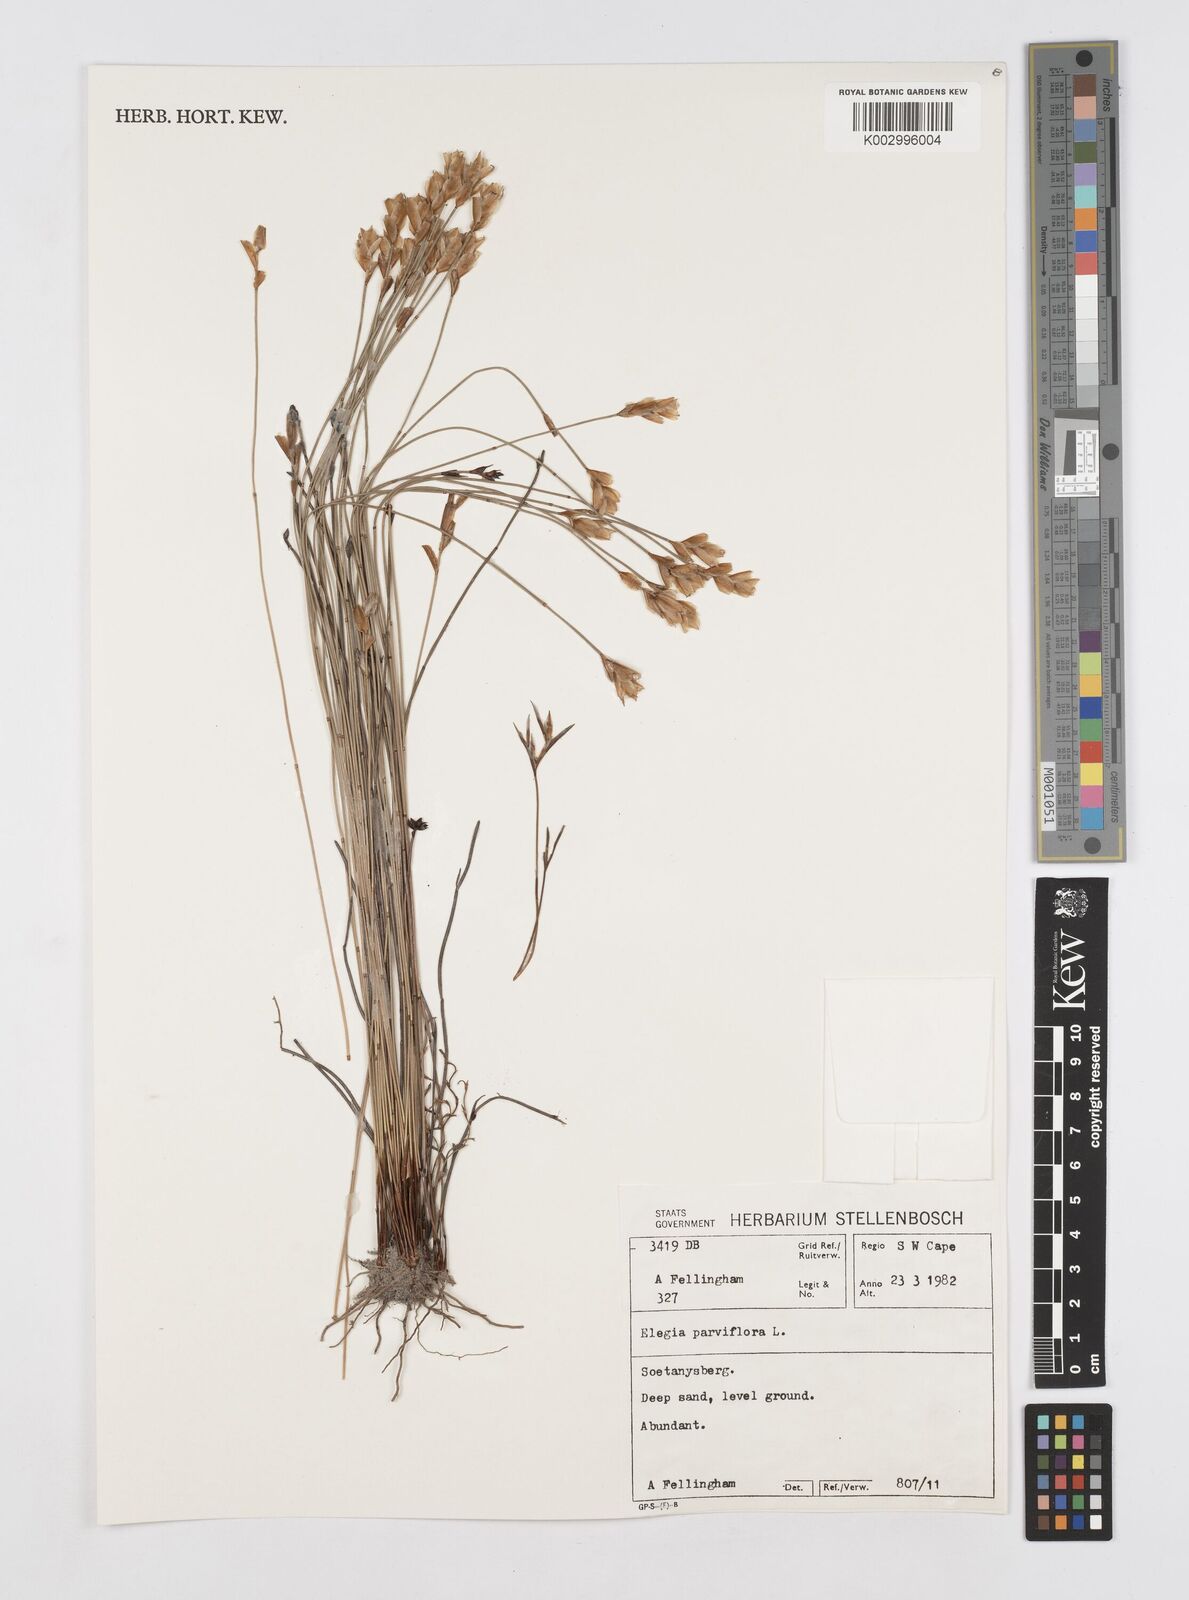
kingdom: Plantae
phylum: Tracheophyta
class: Liliopsida
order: Poales
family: Restionaceae
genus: Cannomois
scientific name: Cannomois parviflora
